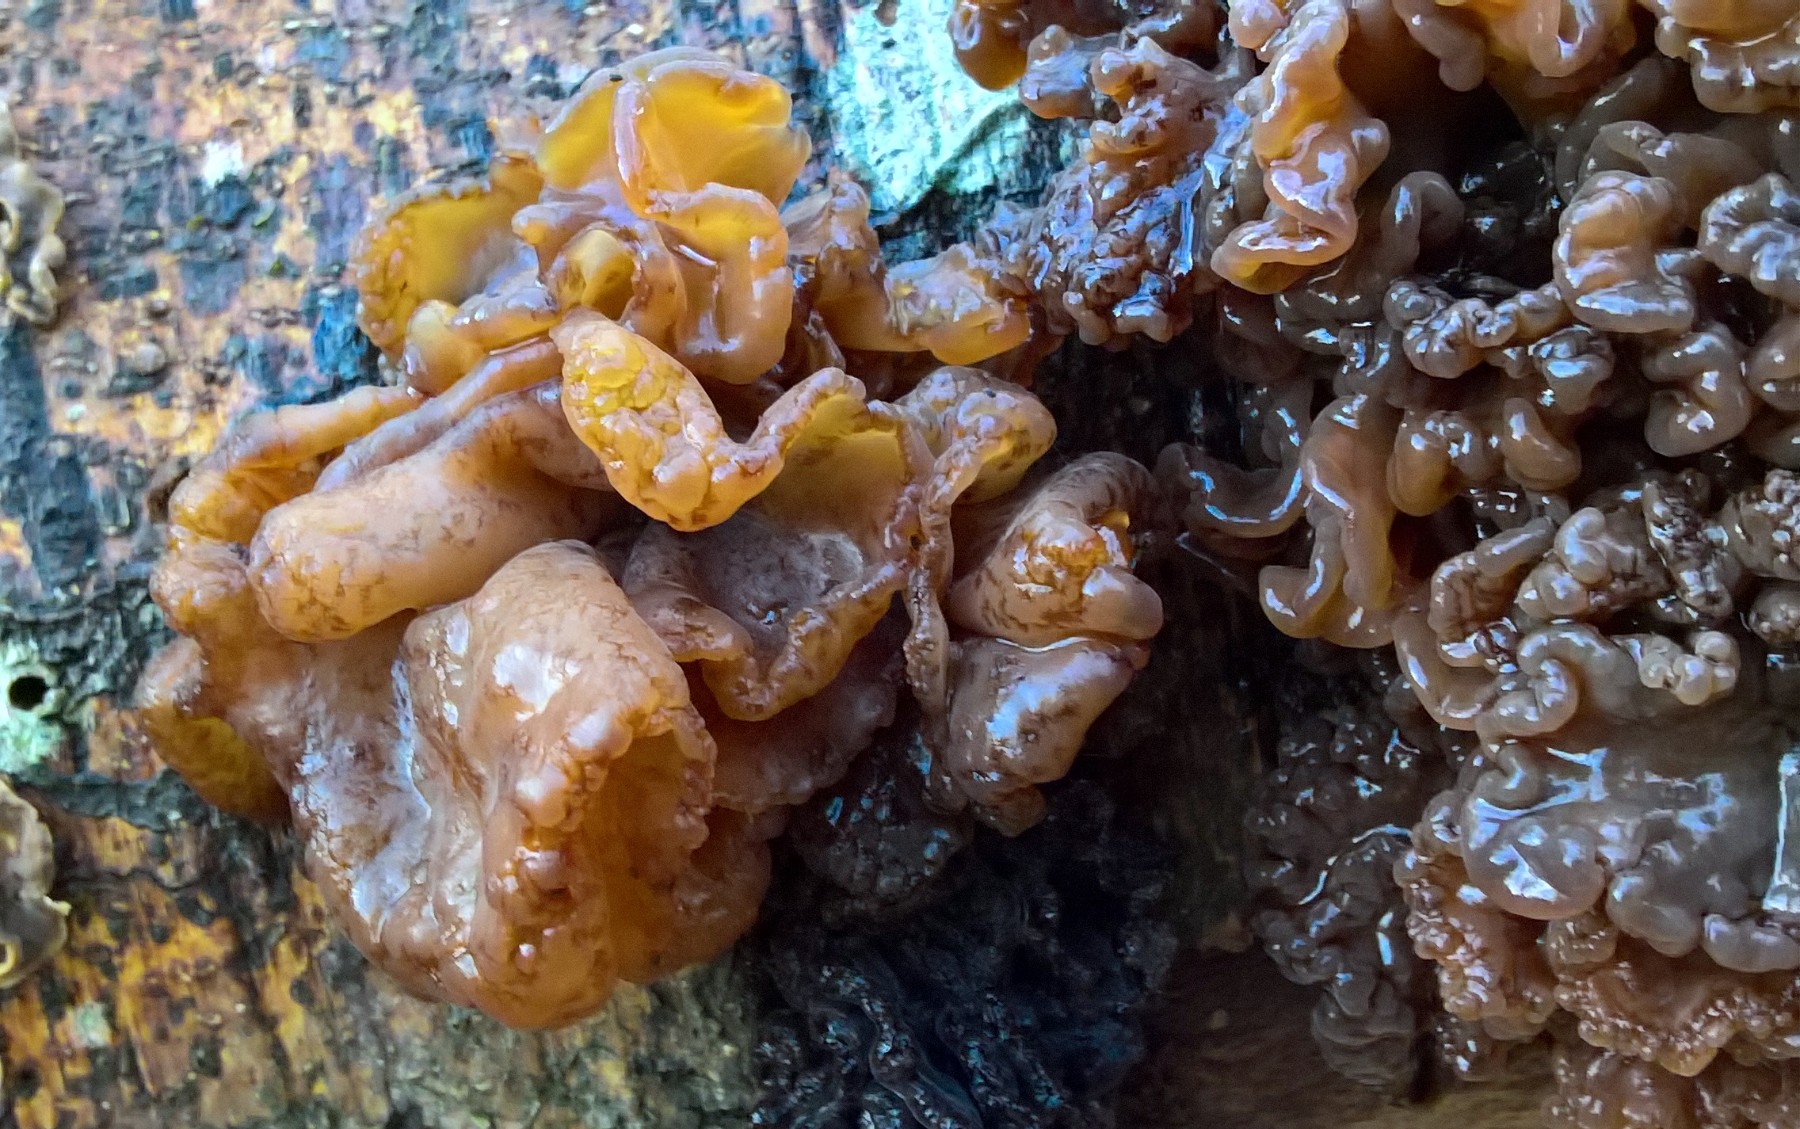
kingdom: Fungi
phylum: Basidiomycota
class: Tremellomycetes
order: Tremellales
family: Tremellaceae
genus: Phaeotremella
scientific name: Phaeotremella frondosa
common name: kæmpe-bævresvamp
